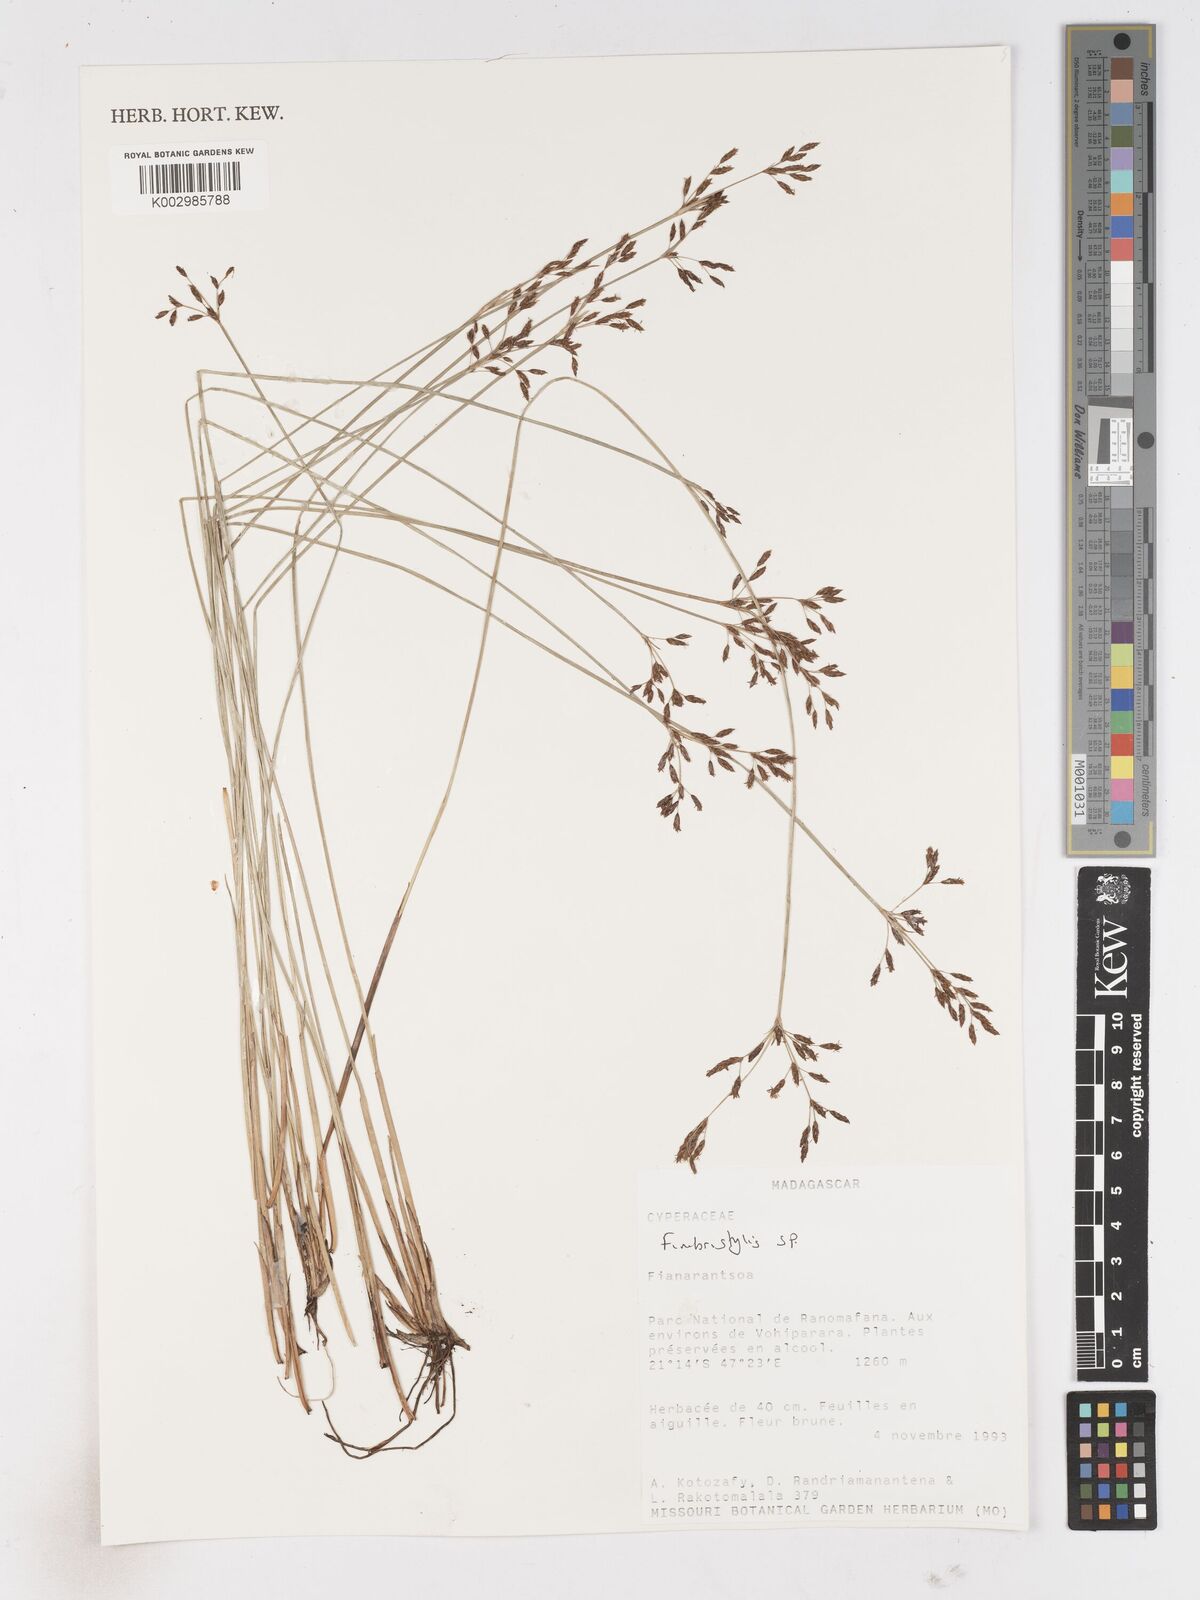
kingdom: Plantae
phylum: Tracheophyta
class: Liliopsida
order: Poales
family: Cyperaceae
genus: Fimbristylis
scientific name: Fimbristylis
